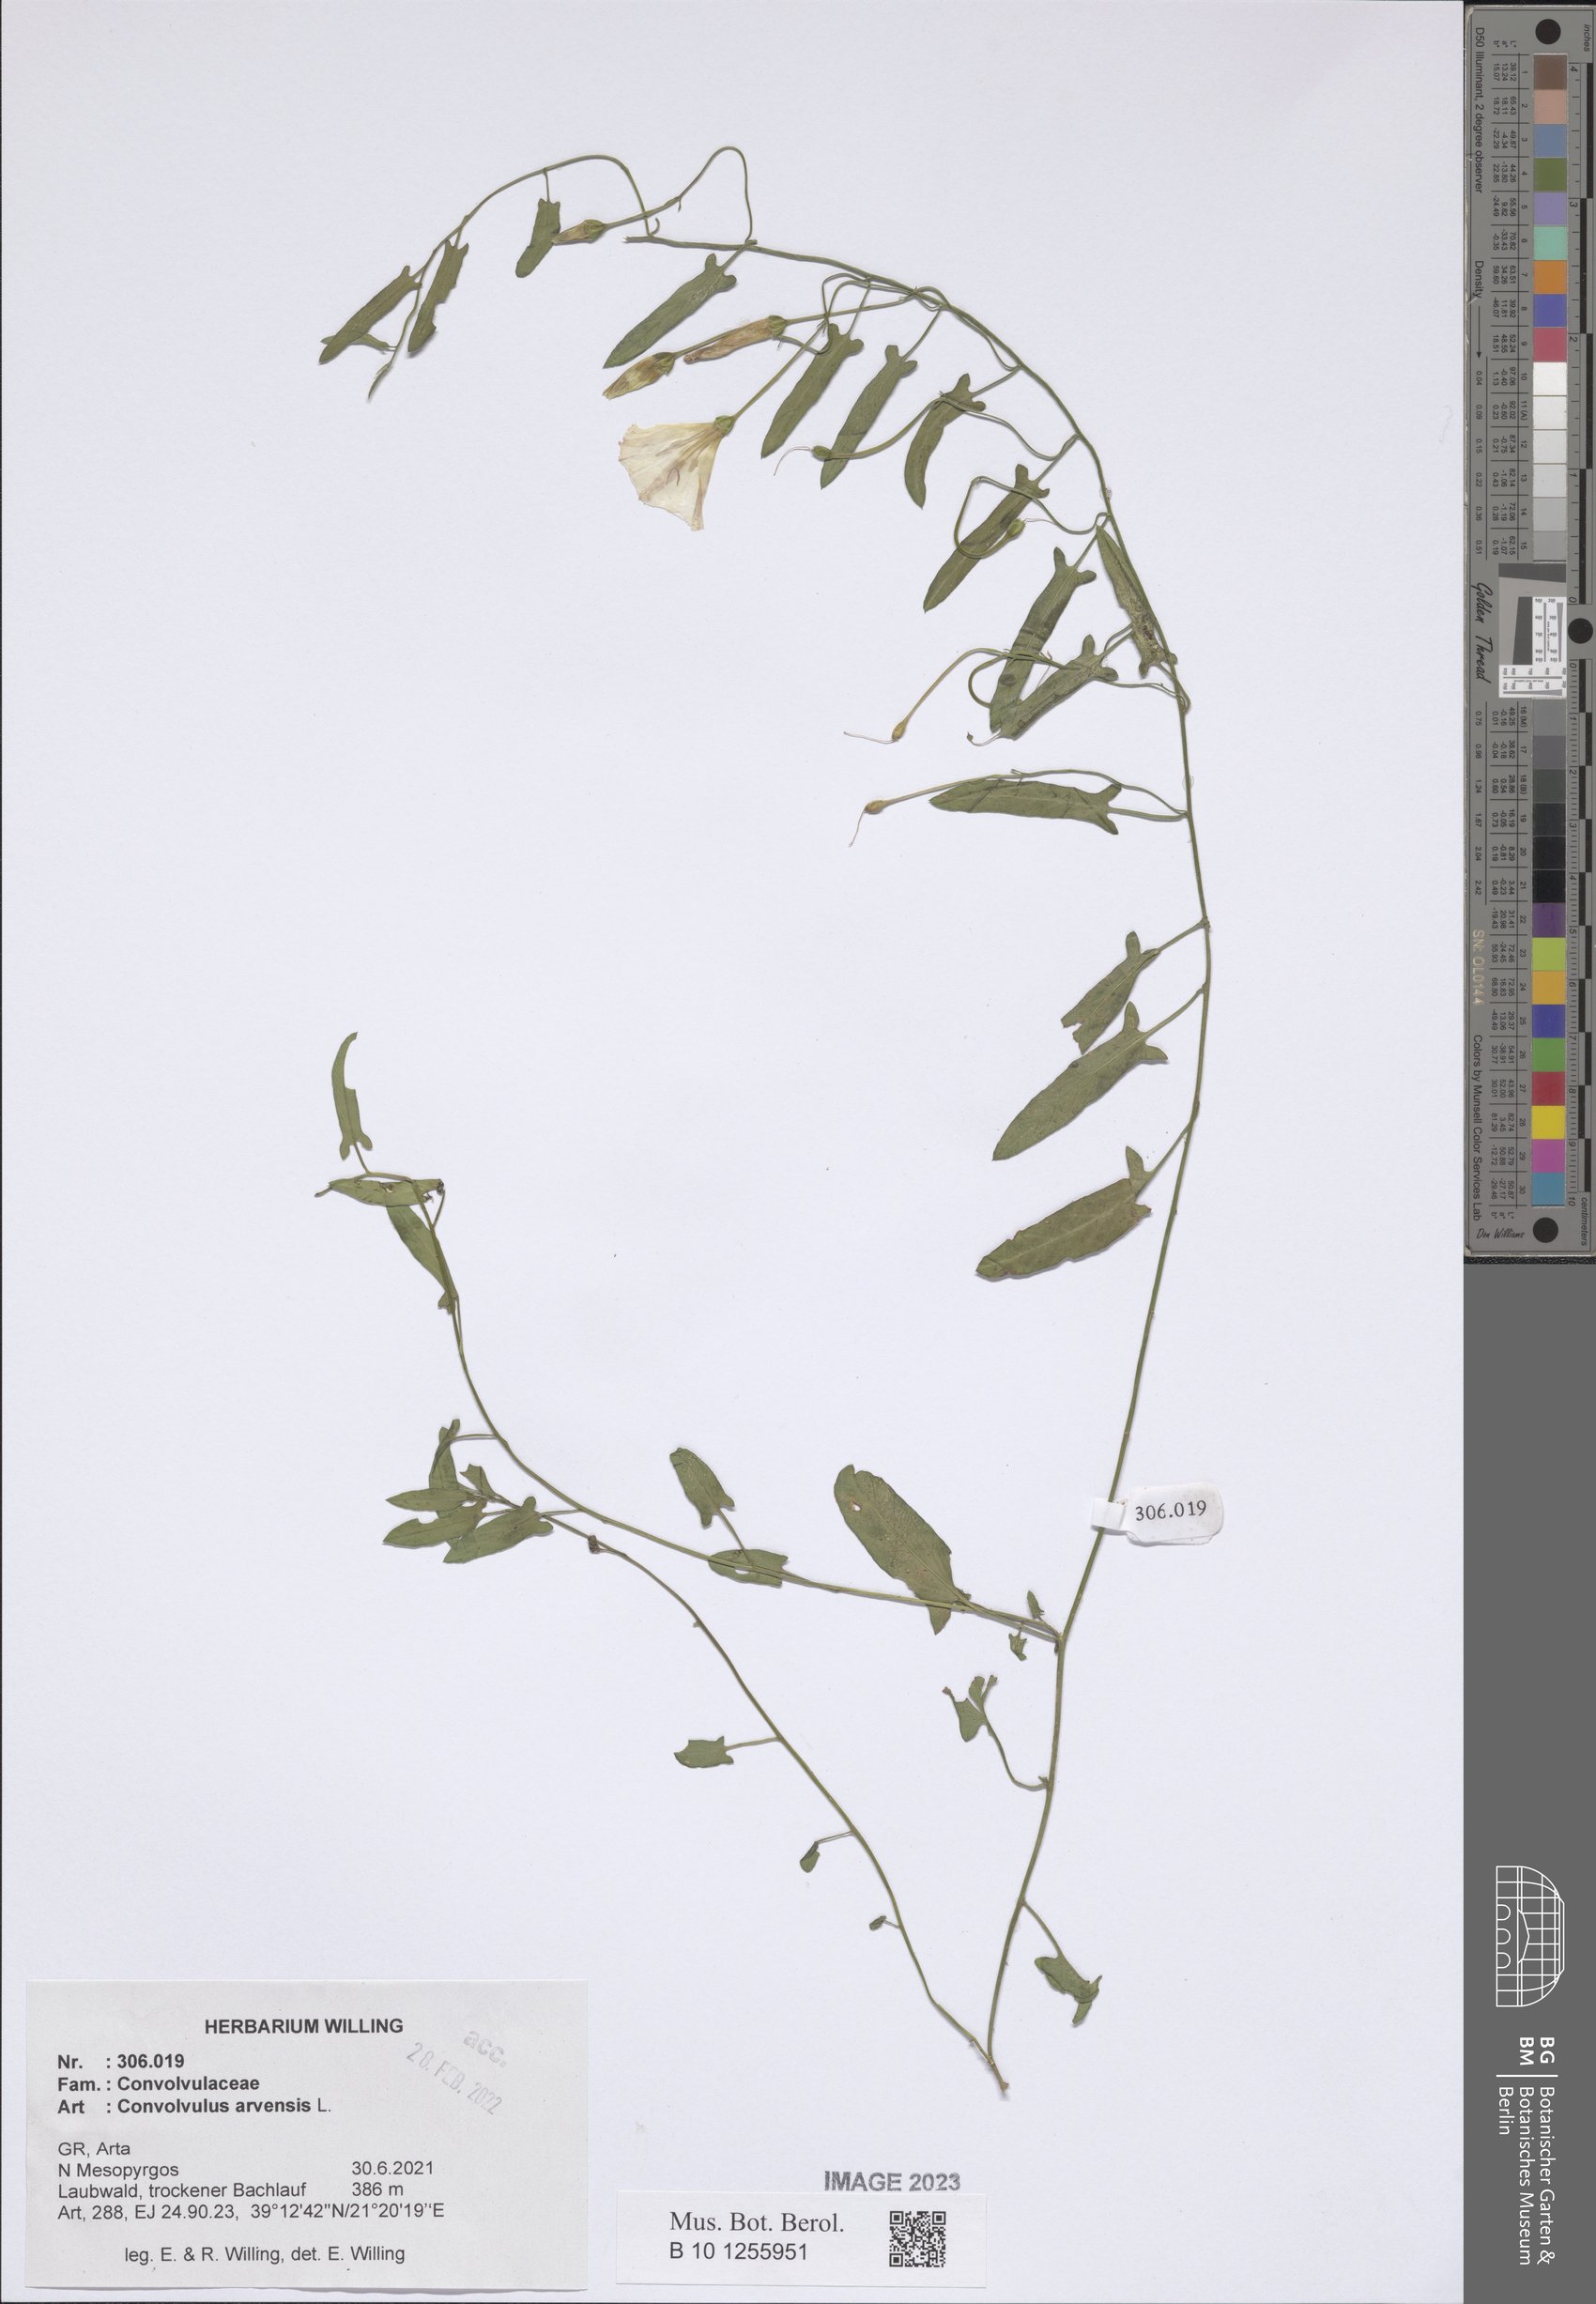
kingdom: Plantae
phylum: Tracheophyta
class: Magnoliopsida
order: Solanales
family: Convolvulaceae
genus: Convolvulus
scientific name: Convolvulus arvensis
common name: Field bindweed
